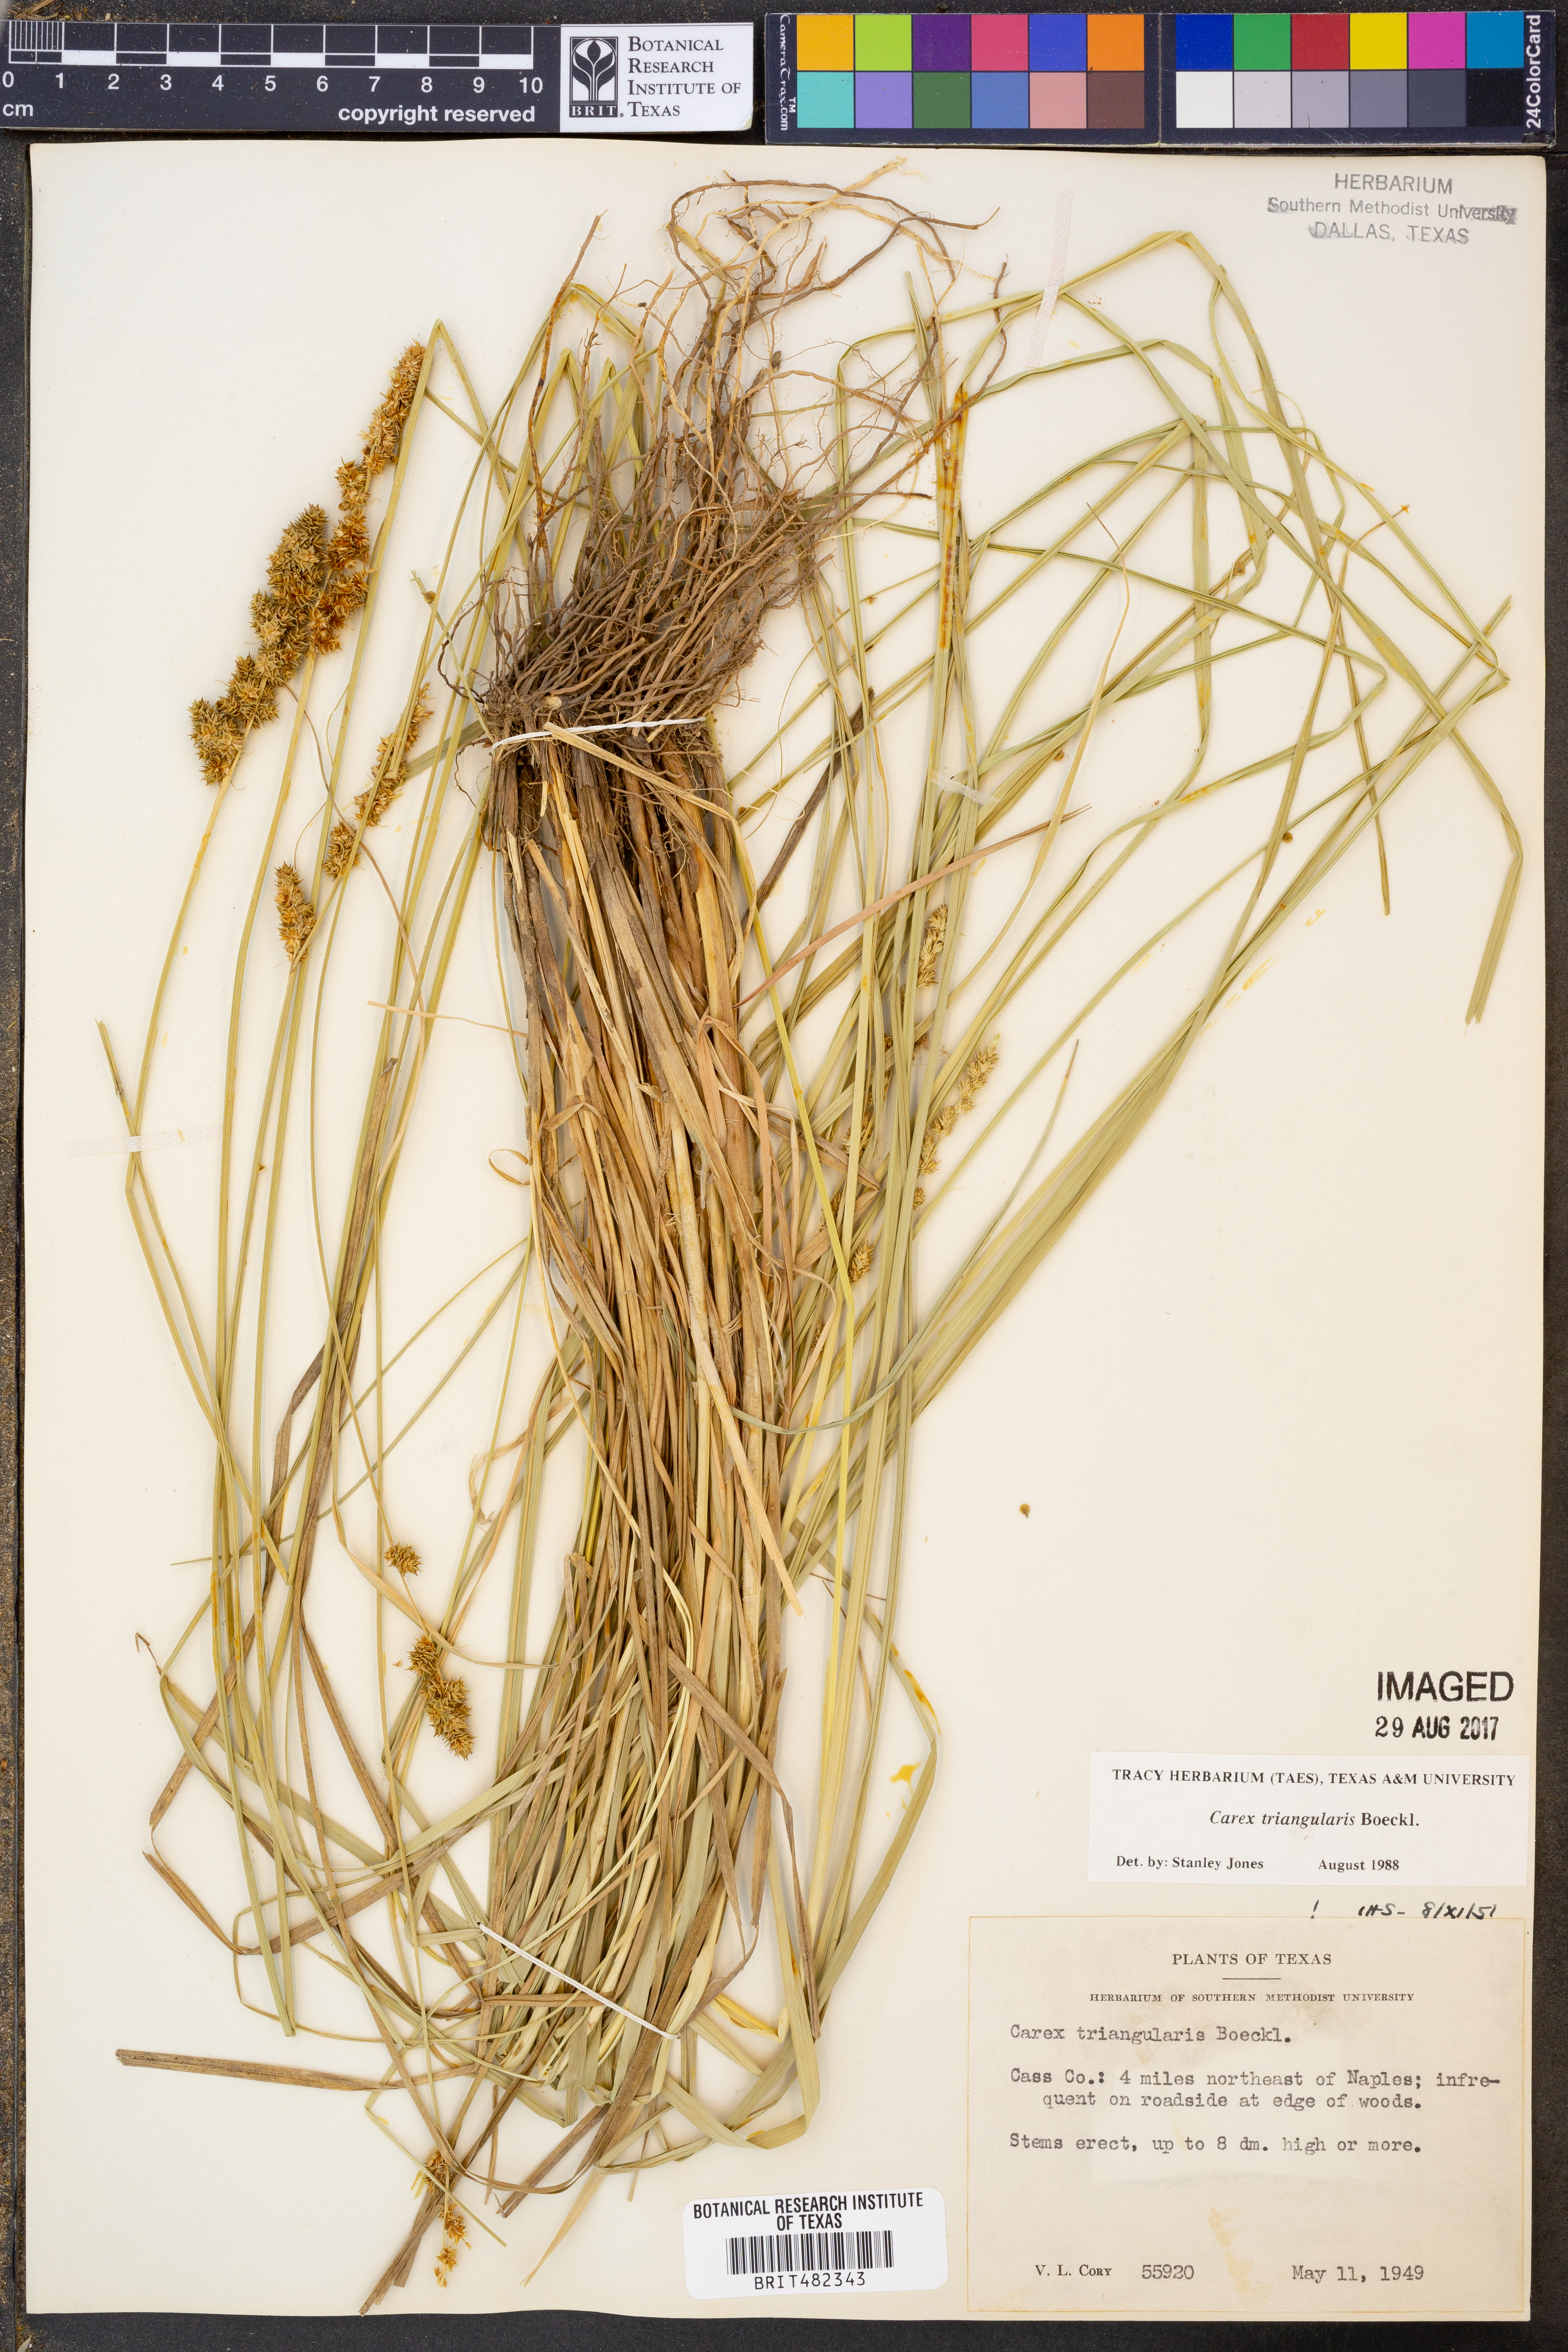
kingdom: Plantae
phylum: Tracheophyta
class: Liliopsida
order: Poales
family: Cyperaceae
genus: Carex
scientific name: Carex triangularis
